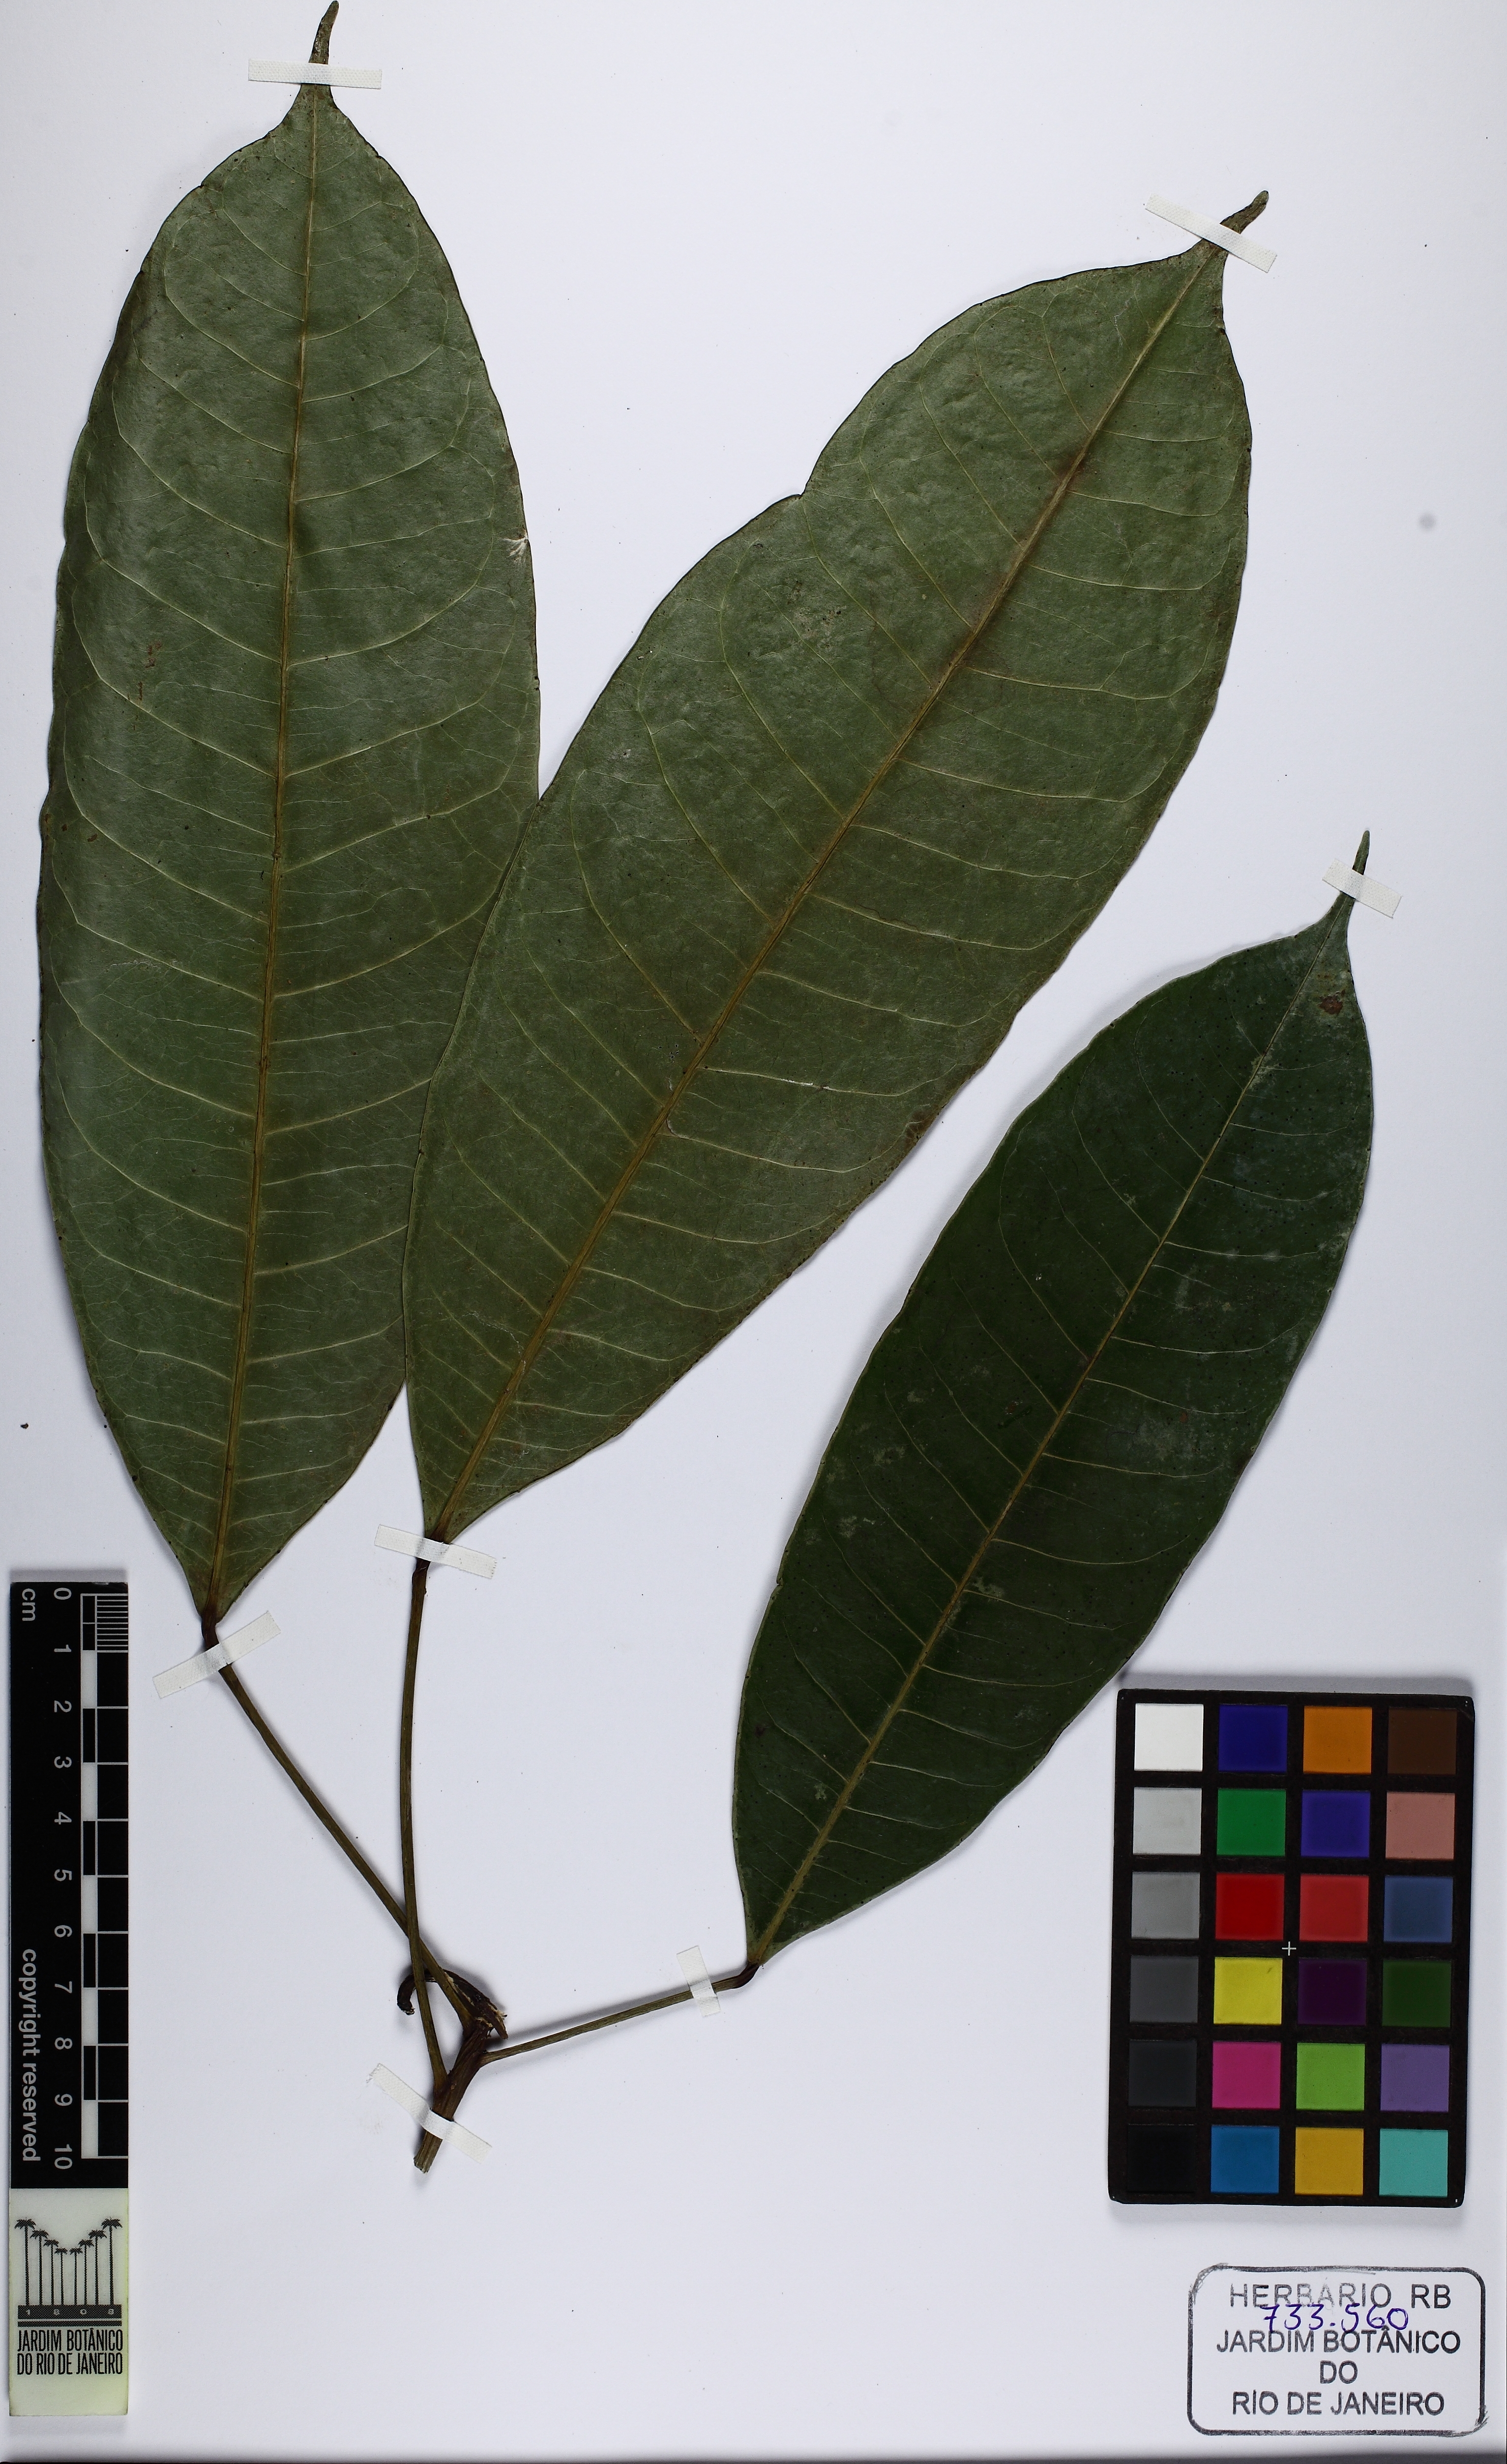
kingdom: Plantae
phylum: Tracheophyta
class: Magnoliopsida
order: Malpighiales
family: Euphorbiaceae
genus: Dodecastigma
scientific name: Dodecastigma uleanum
